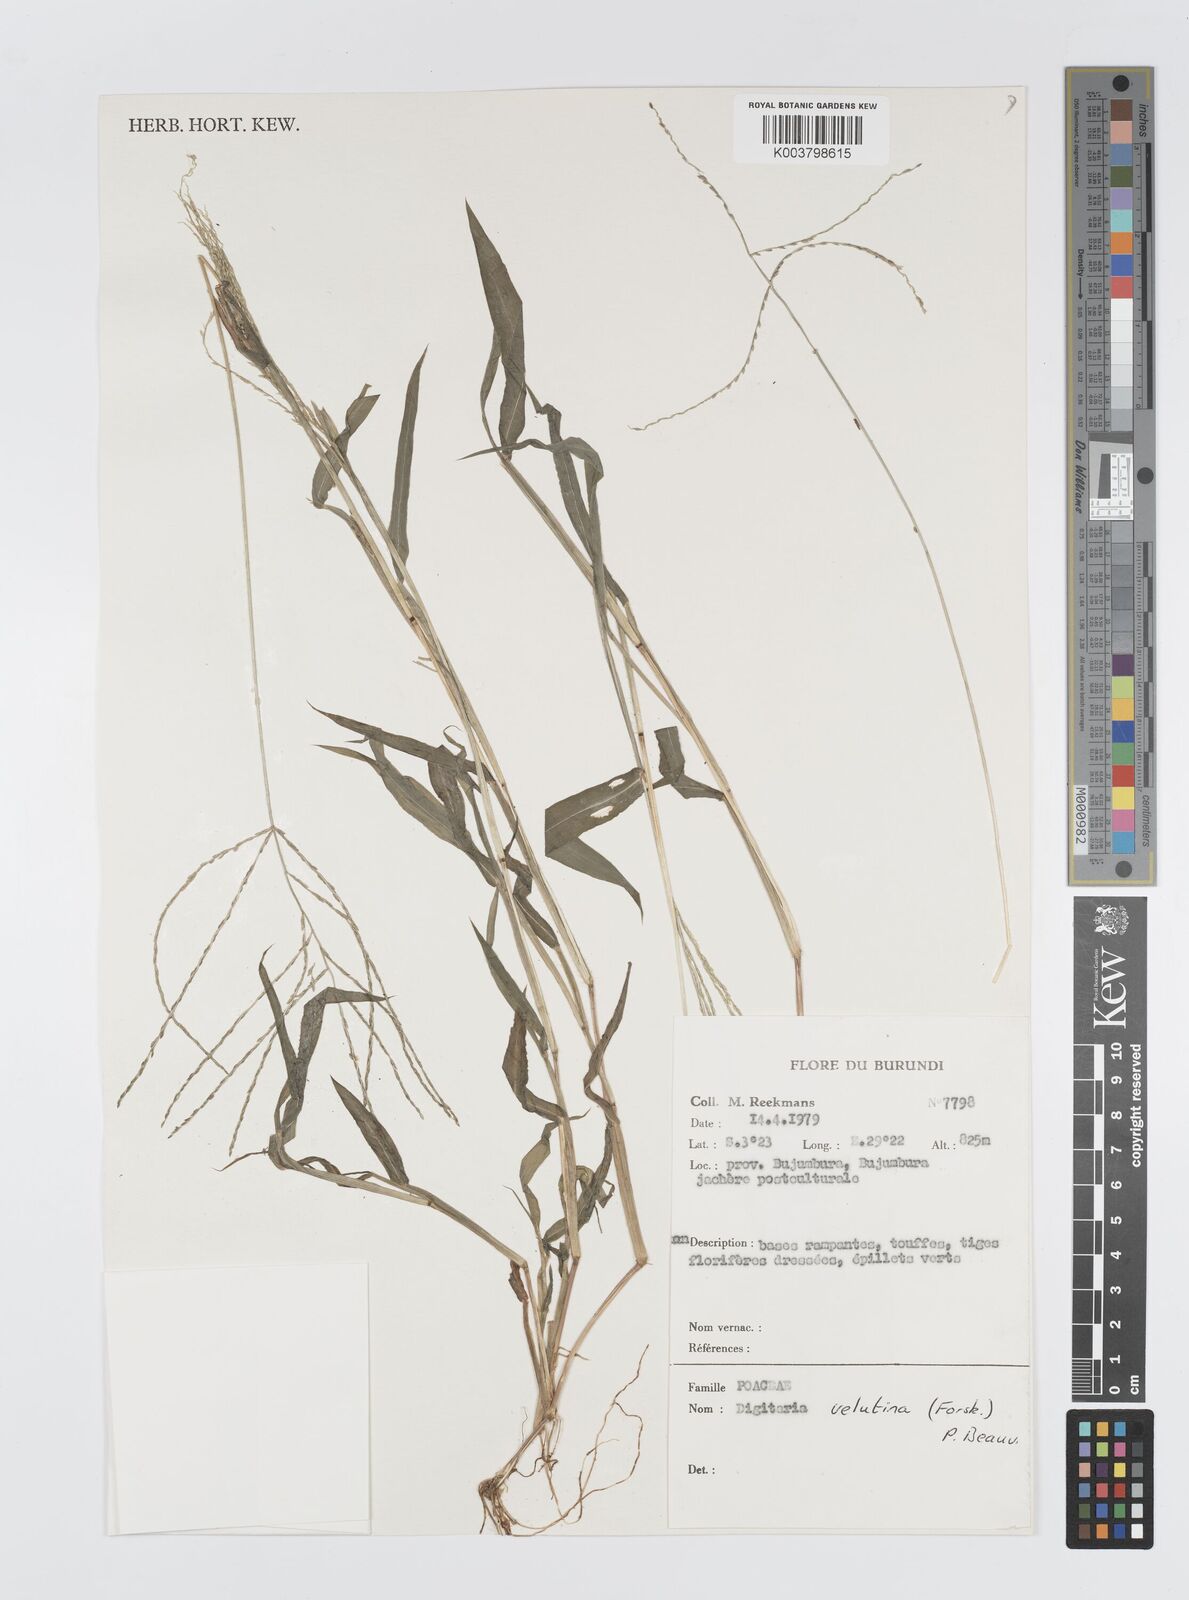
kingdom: Plantae
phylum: Tracheophyta
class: Liliopsida
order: Poales
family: Poaceae
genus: Digitaria
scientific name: Digitaria velutina
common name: Long-plume finger grass
